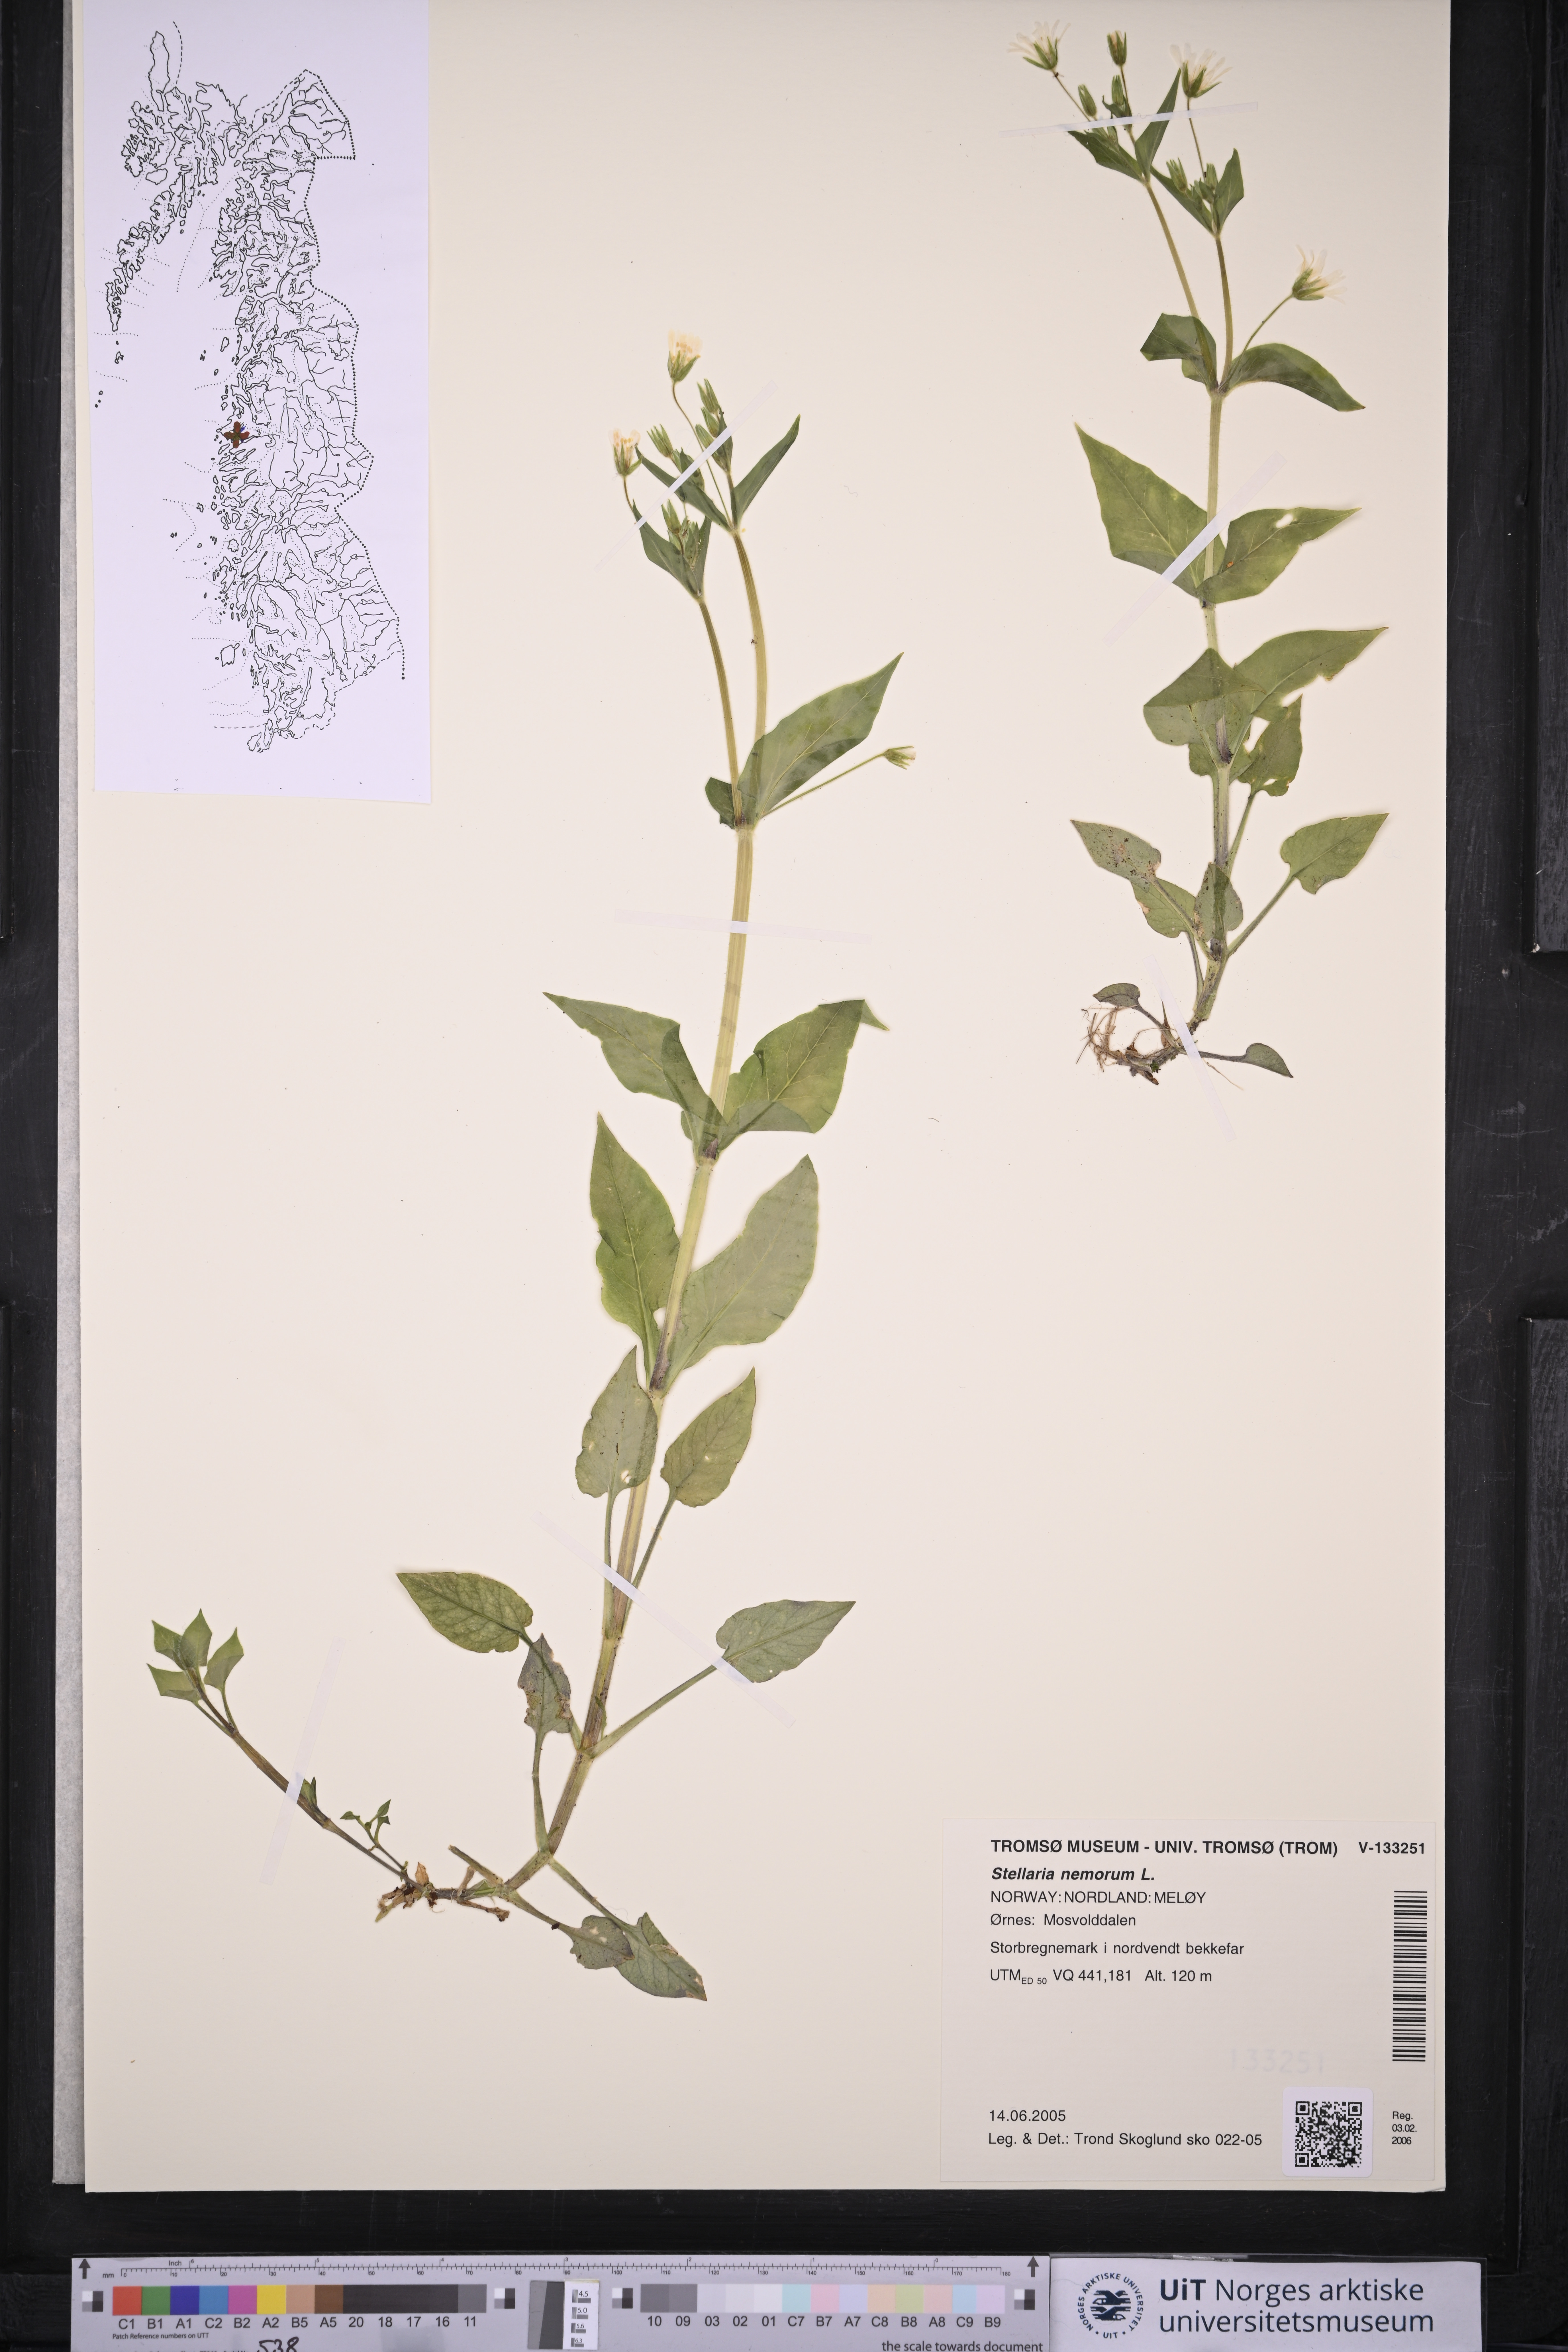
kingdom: Plantae
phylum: Tracheophyta
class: Magnoliopsida
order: Caryophyllales
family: Caryophyllaceae
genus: Stellaria
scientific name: Stellaria nemorum
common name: Wood stitchwort
